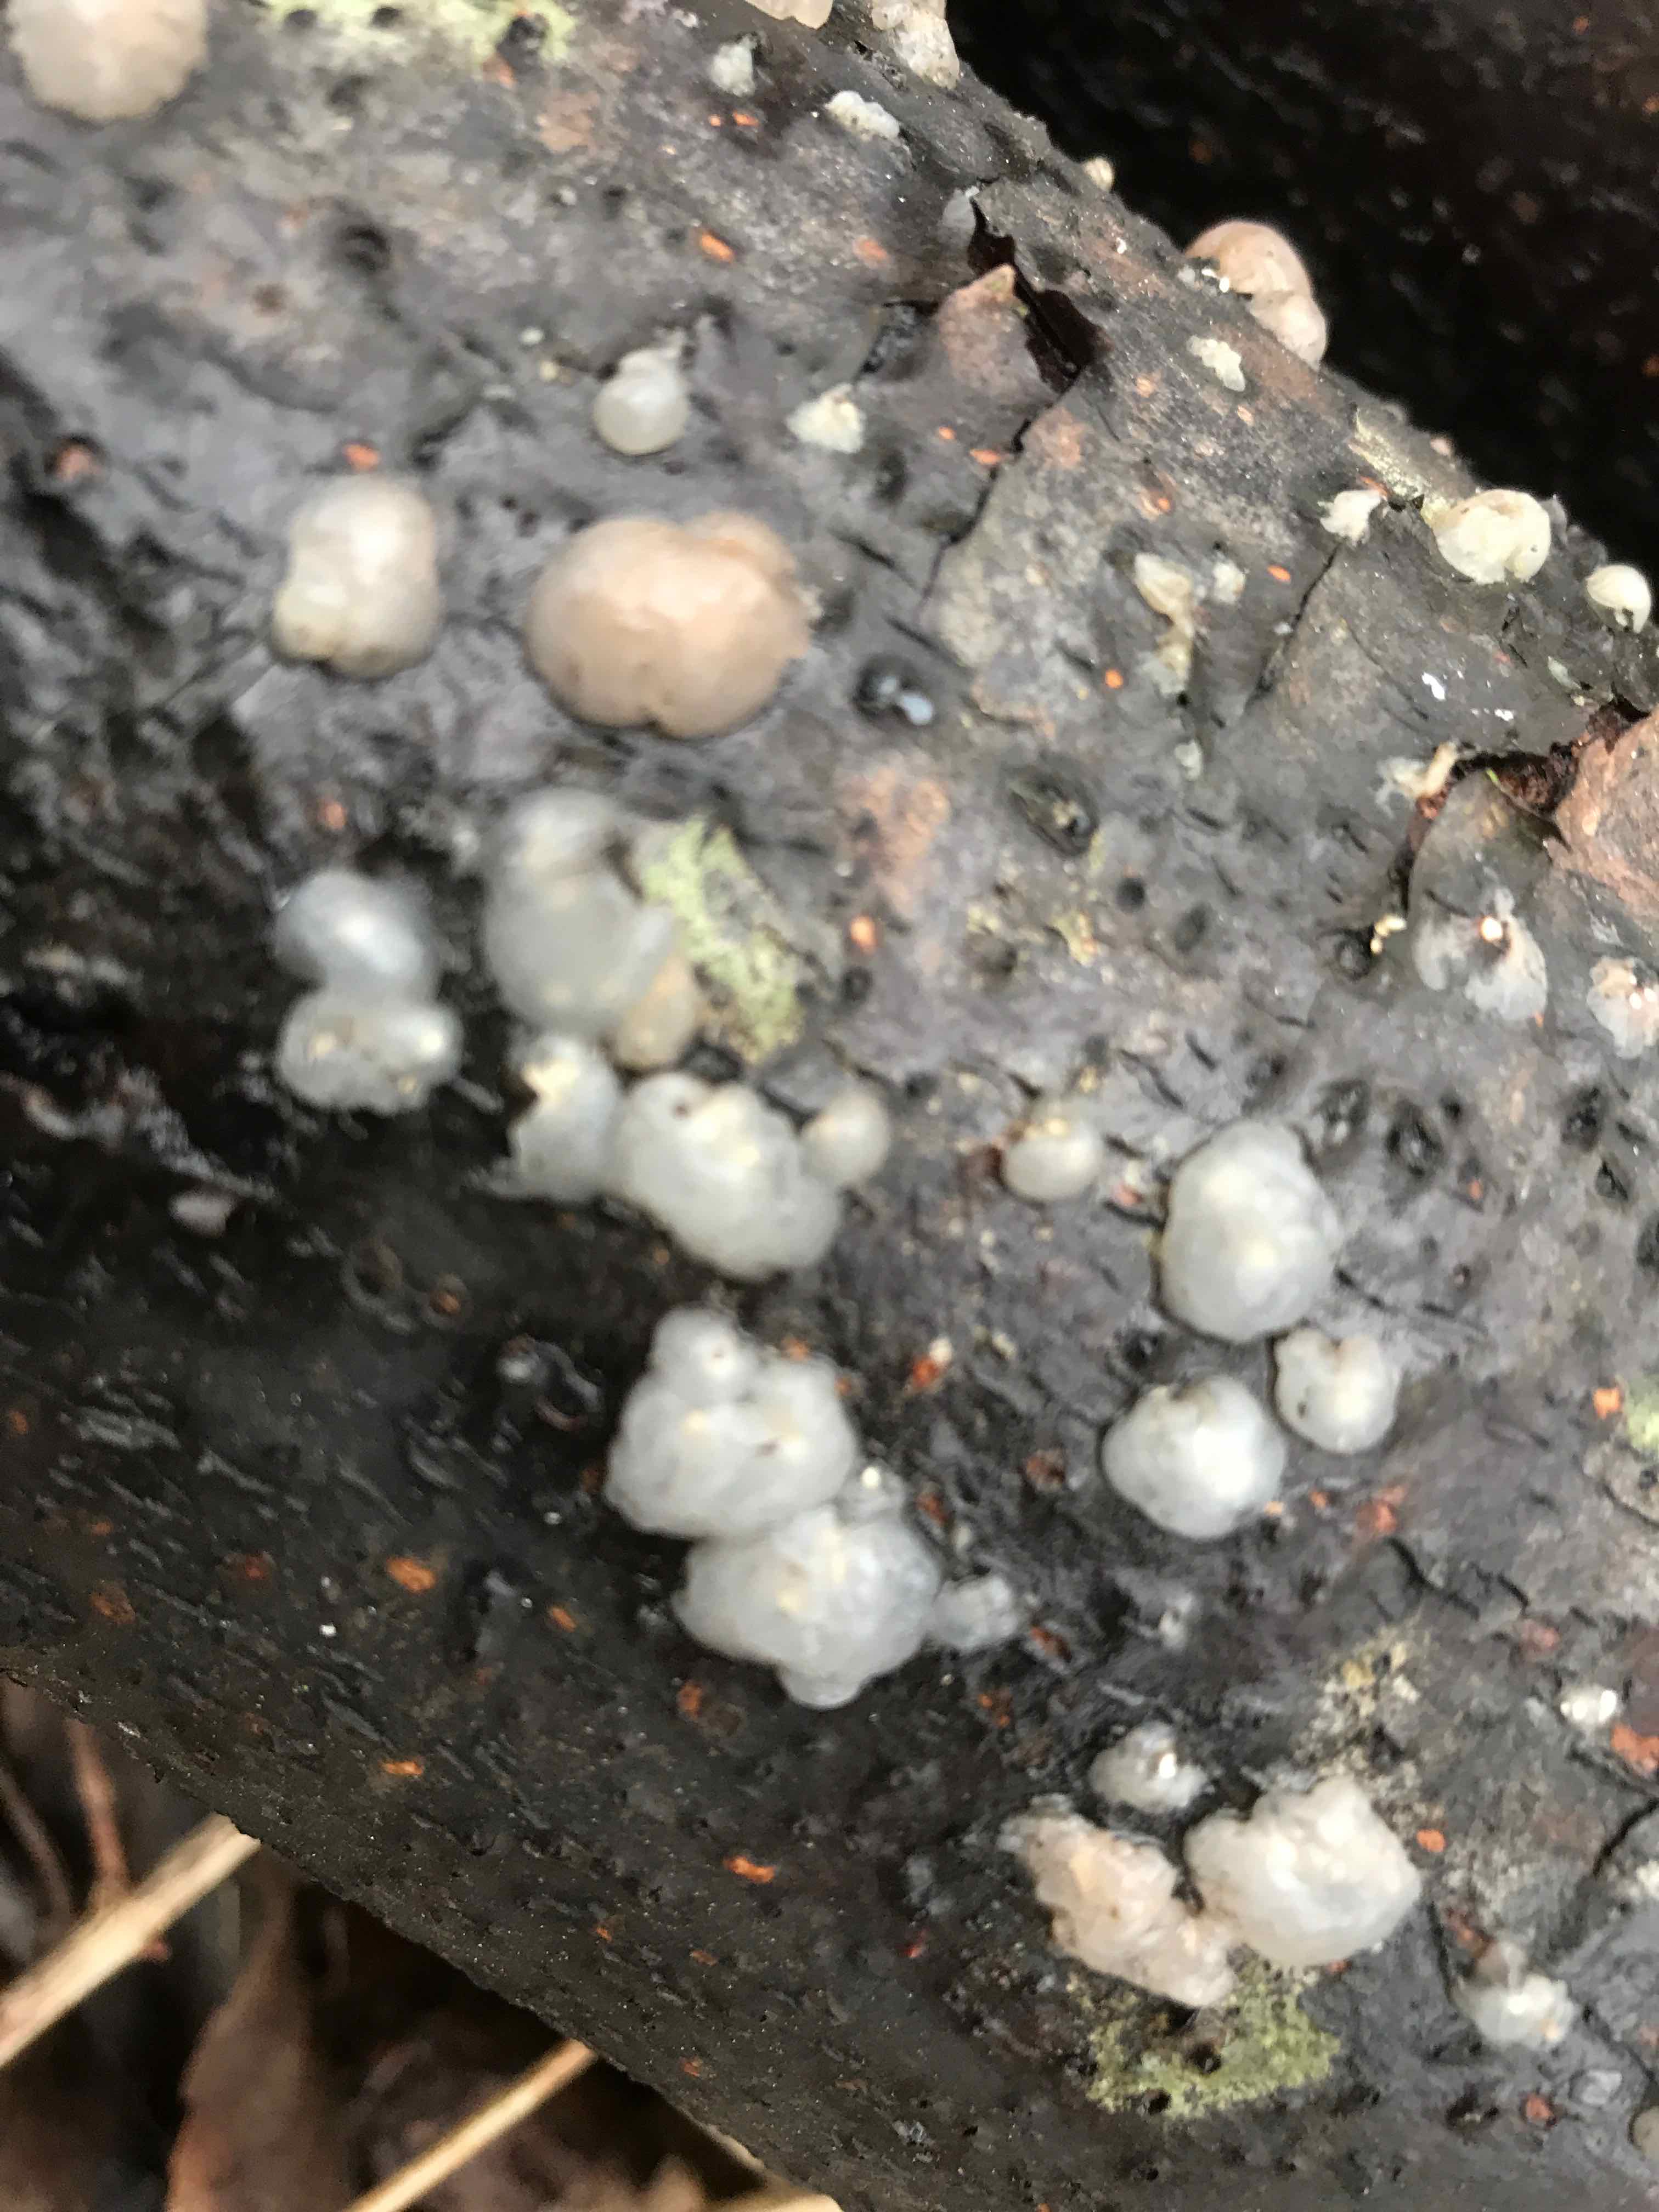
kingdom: Fungi
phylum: Basidiomycota
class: Agaricomycetes
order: Auriculariales
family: Hyaloriaceae
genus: Myxarium
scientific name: Myxarium nucleatum
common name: klar bævretop
